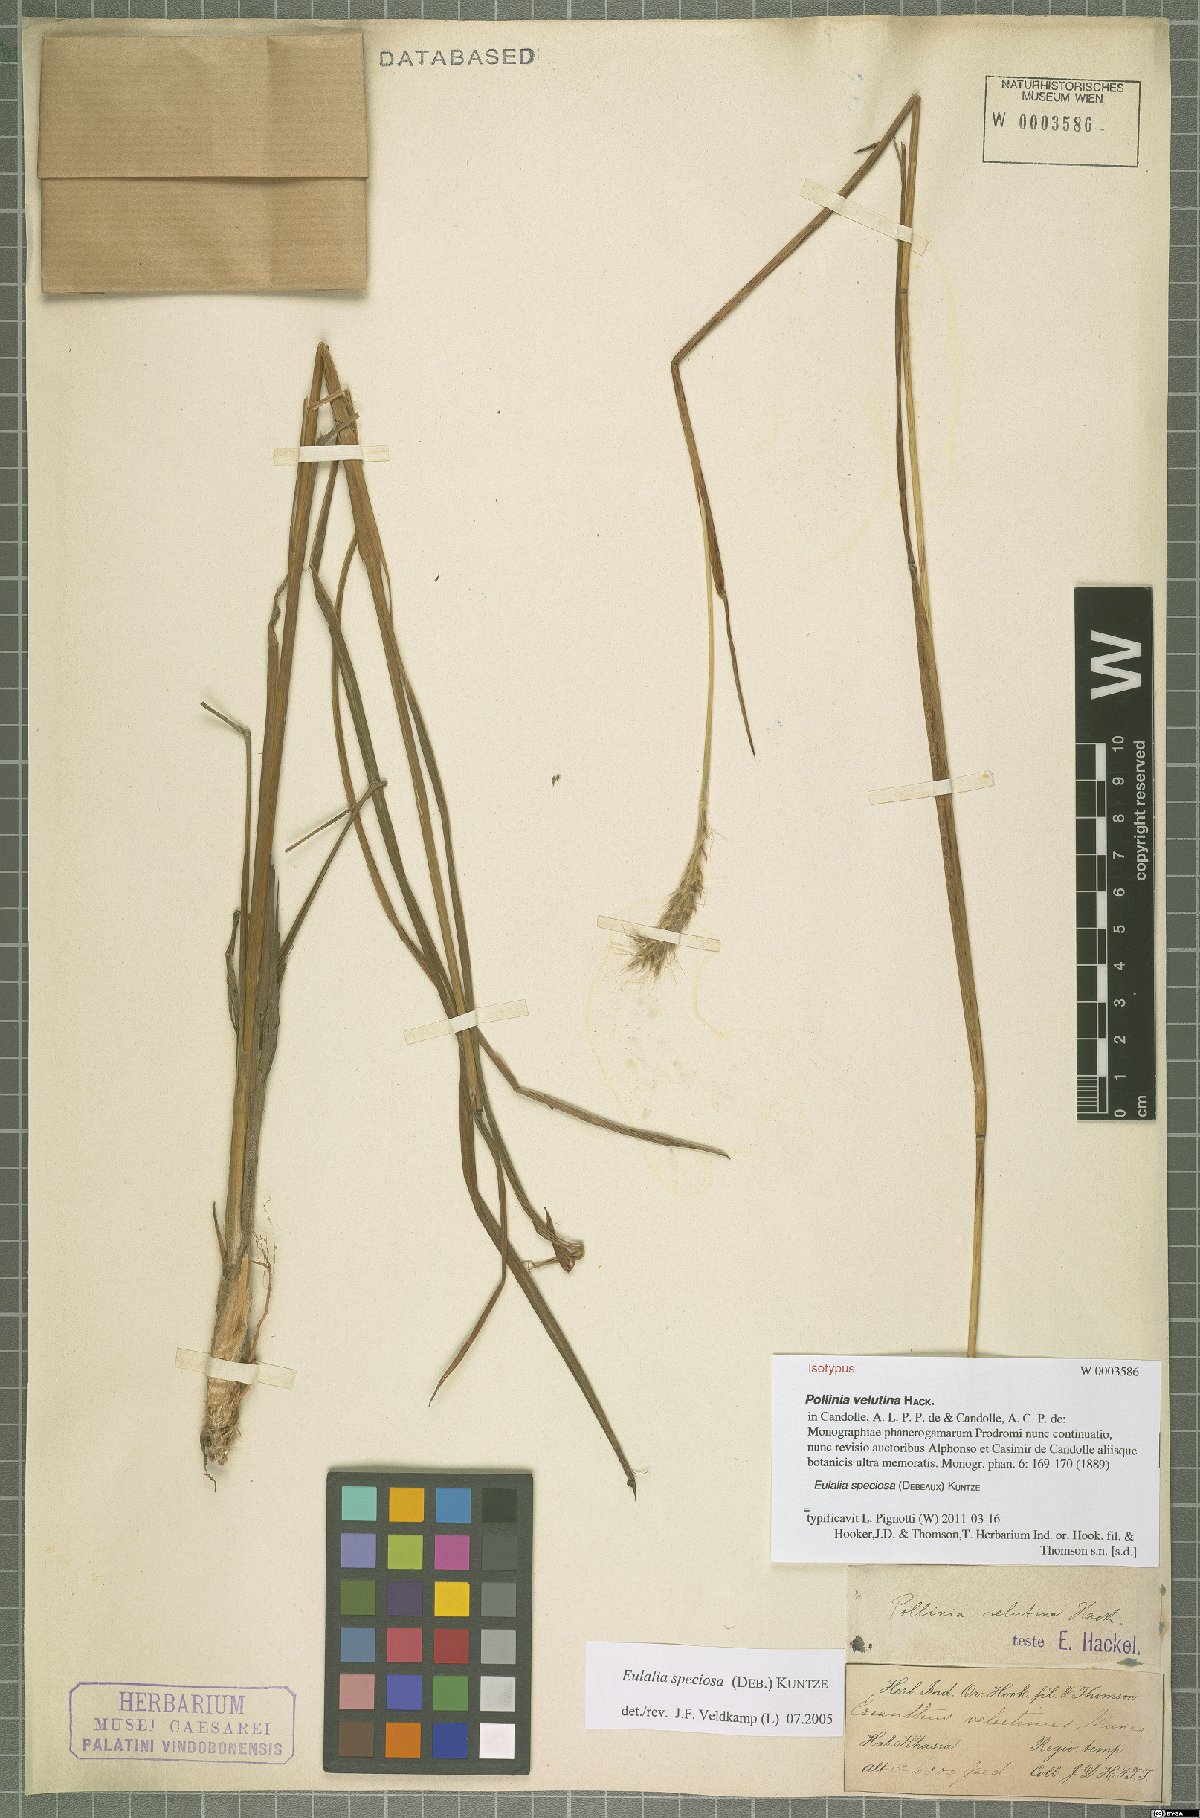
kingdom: Plantae
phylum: Tracheophyta
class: Liliopsida
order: Poales
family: Poaceae
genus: Pseudopogonatherum
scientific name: Pseudopogonatherum speciosum
